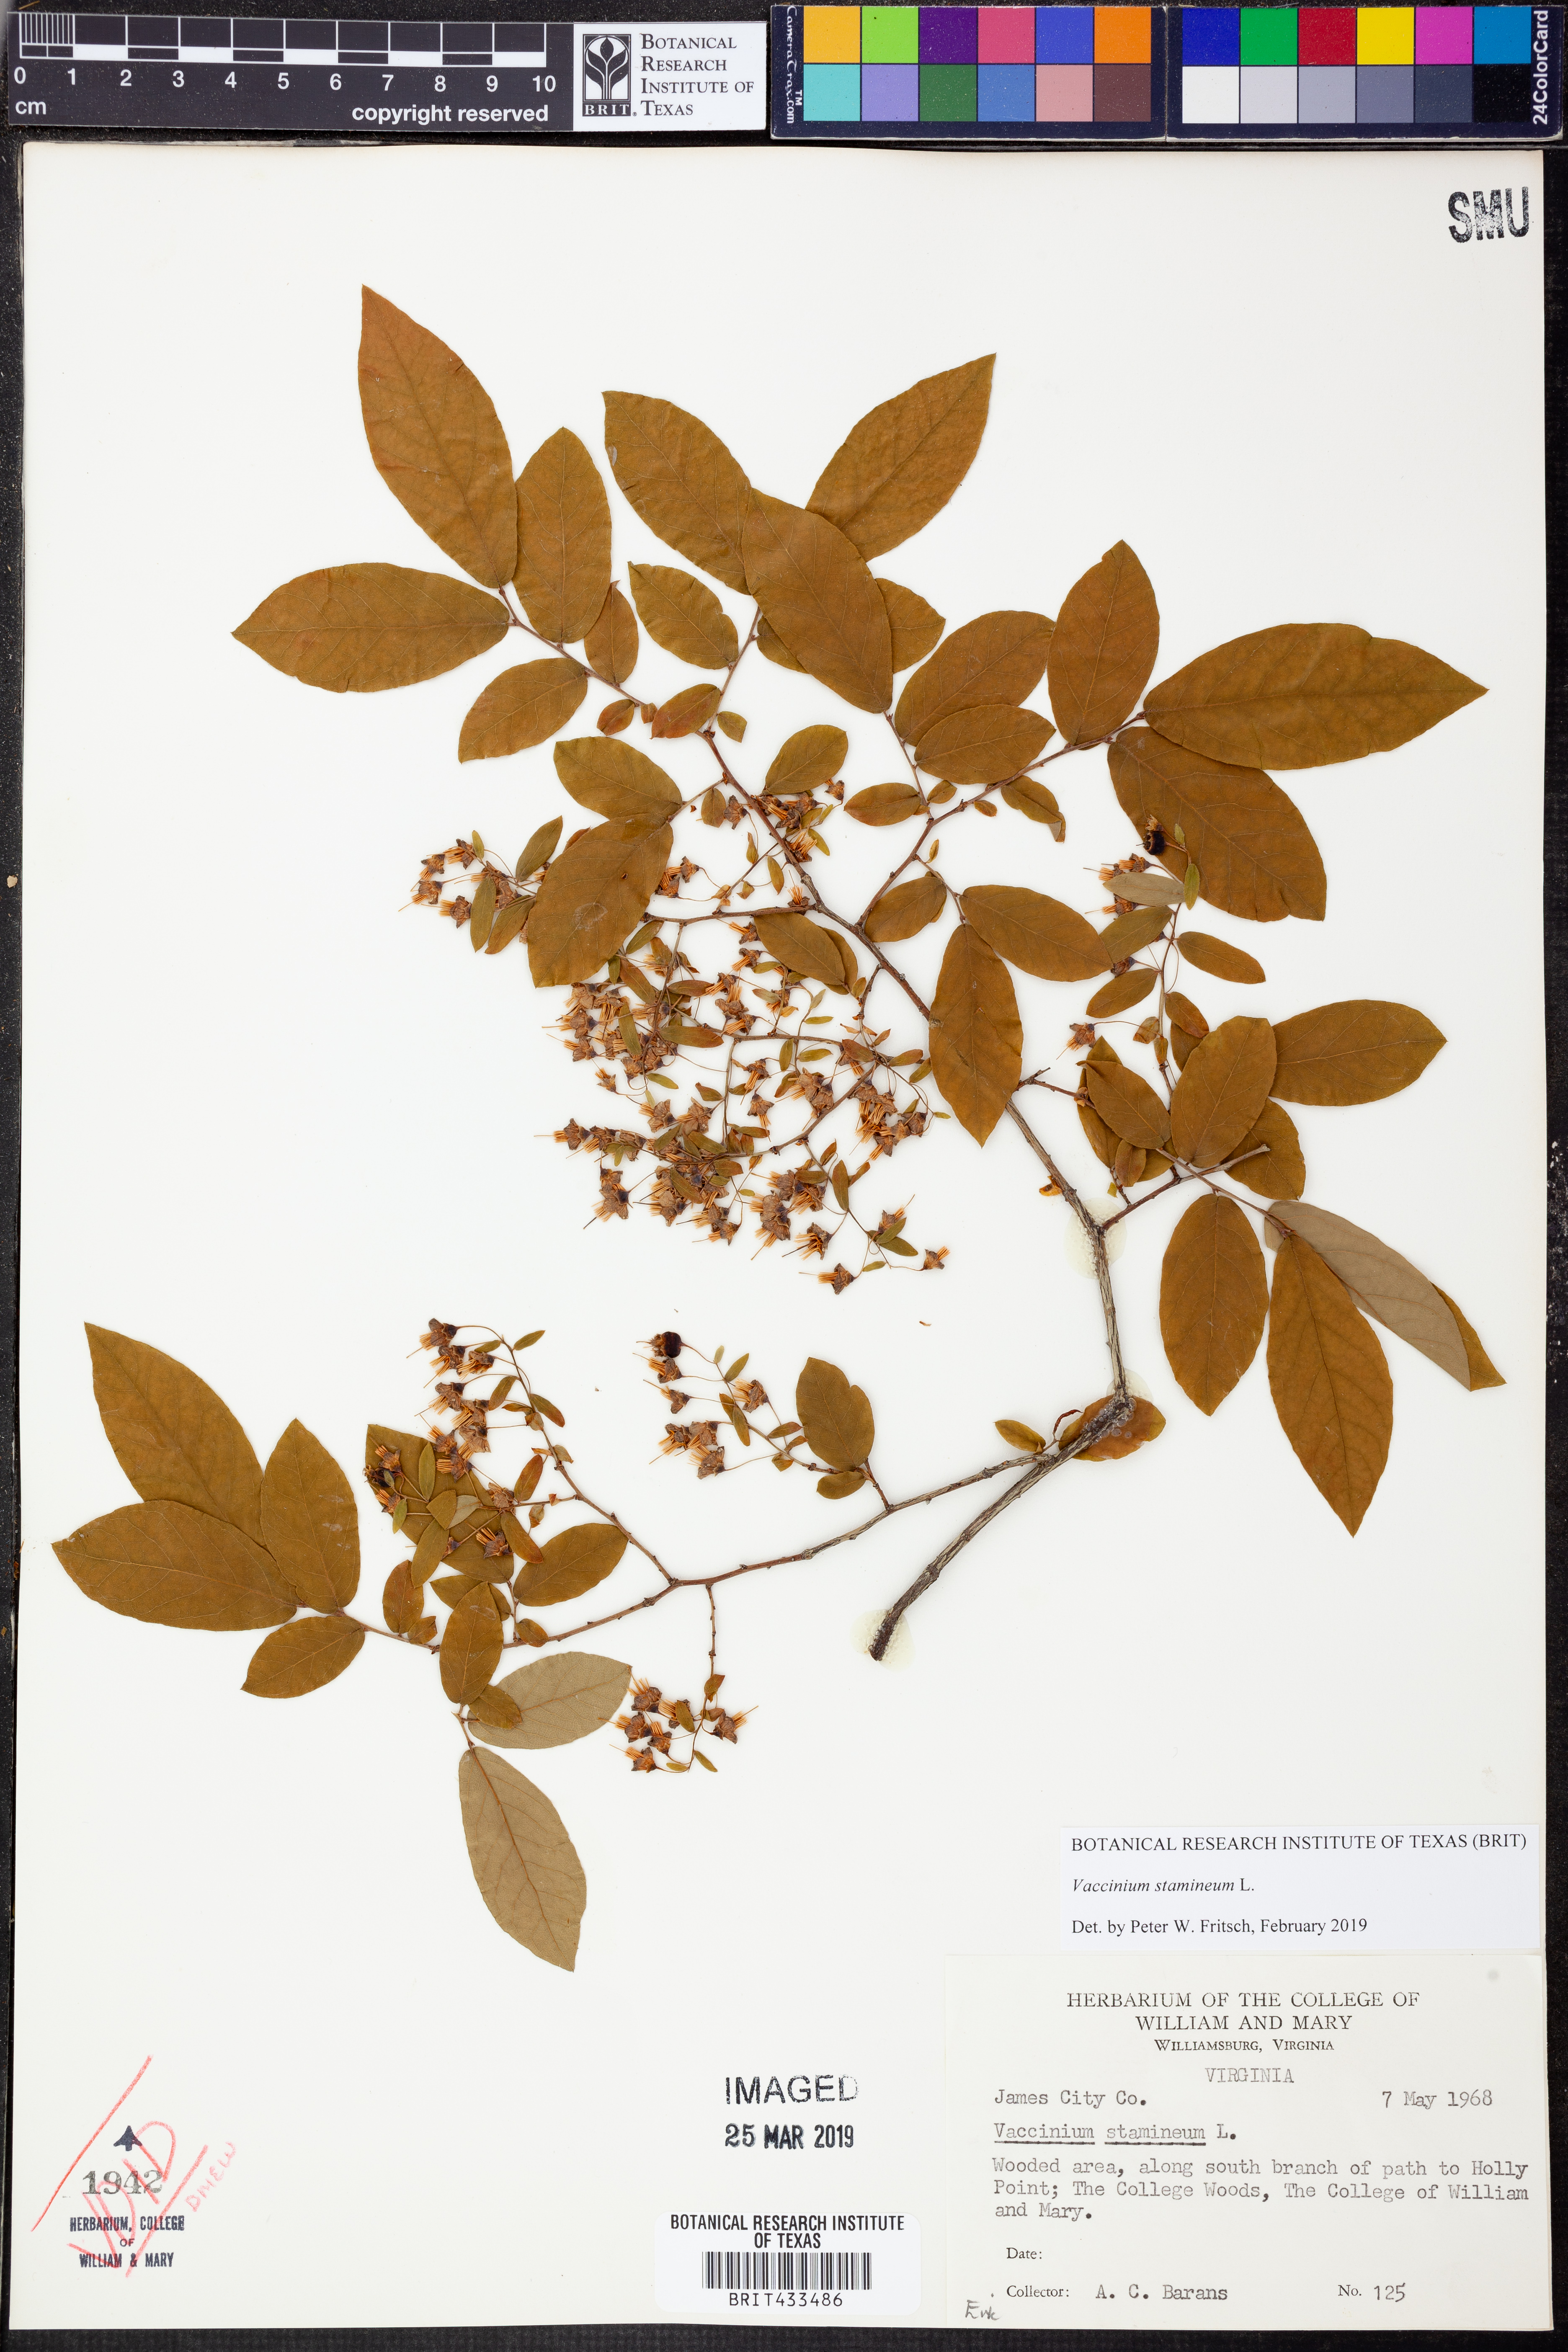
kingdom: Plantae
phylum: Tracheophyta
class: Magnoliopsida
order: Ericales
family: Ericaceae
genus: Vaccinium
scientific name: Vaccinium stamineum
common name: Deerberry
